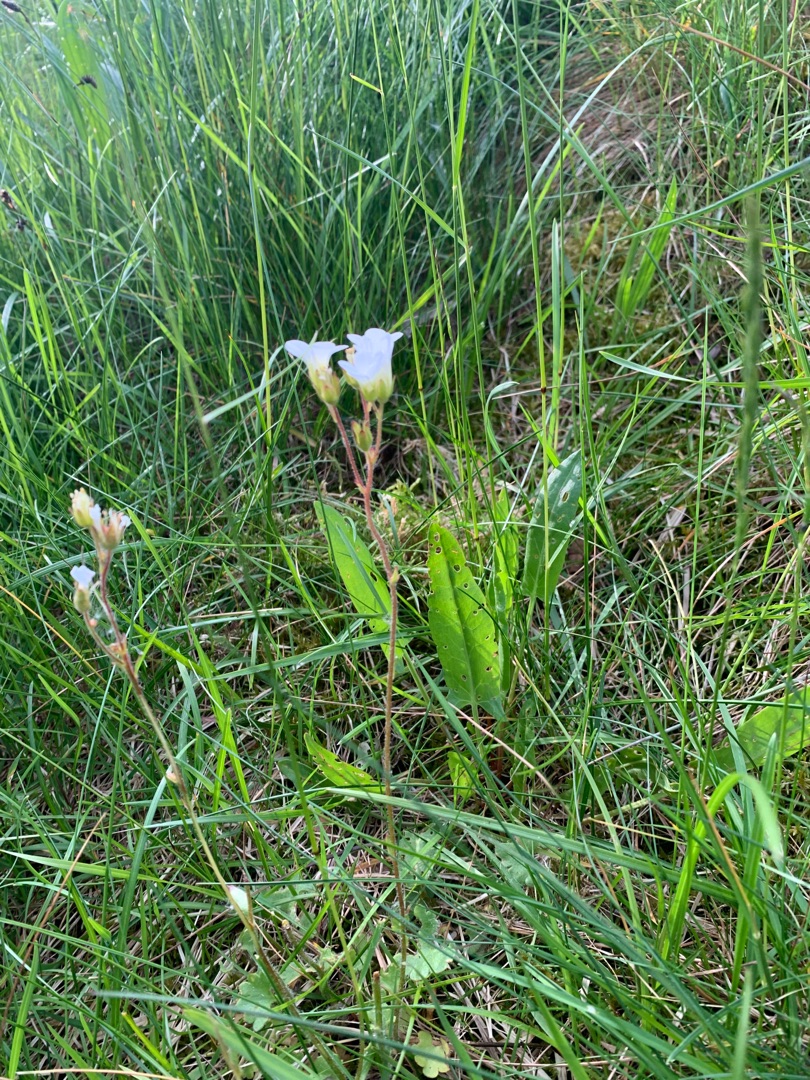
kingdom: Plantae
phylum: Tracheophyta
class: Magnoliopsida
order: Saxifragales
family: Saxifragaceae
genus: Saxifraga
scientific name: Saxifraga granulata
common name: Kornet stenbræk
